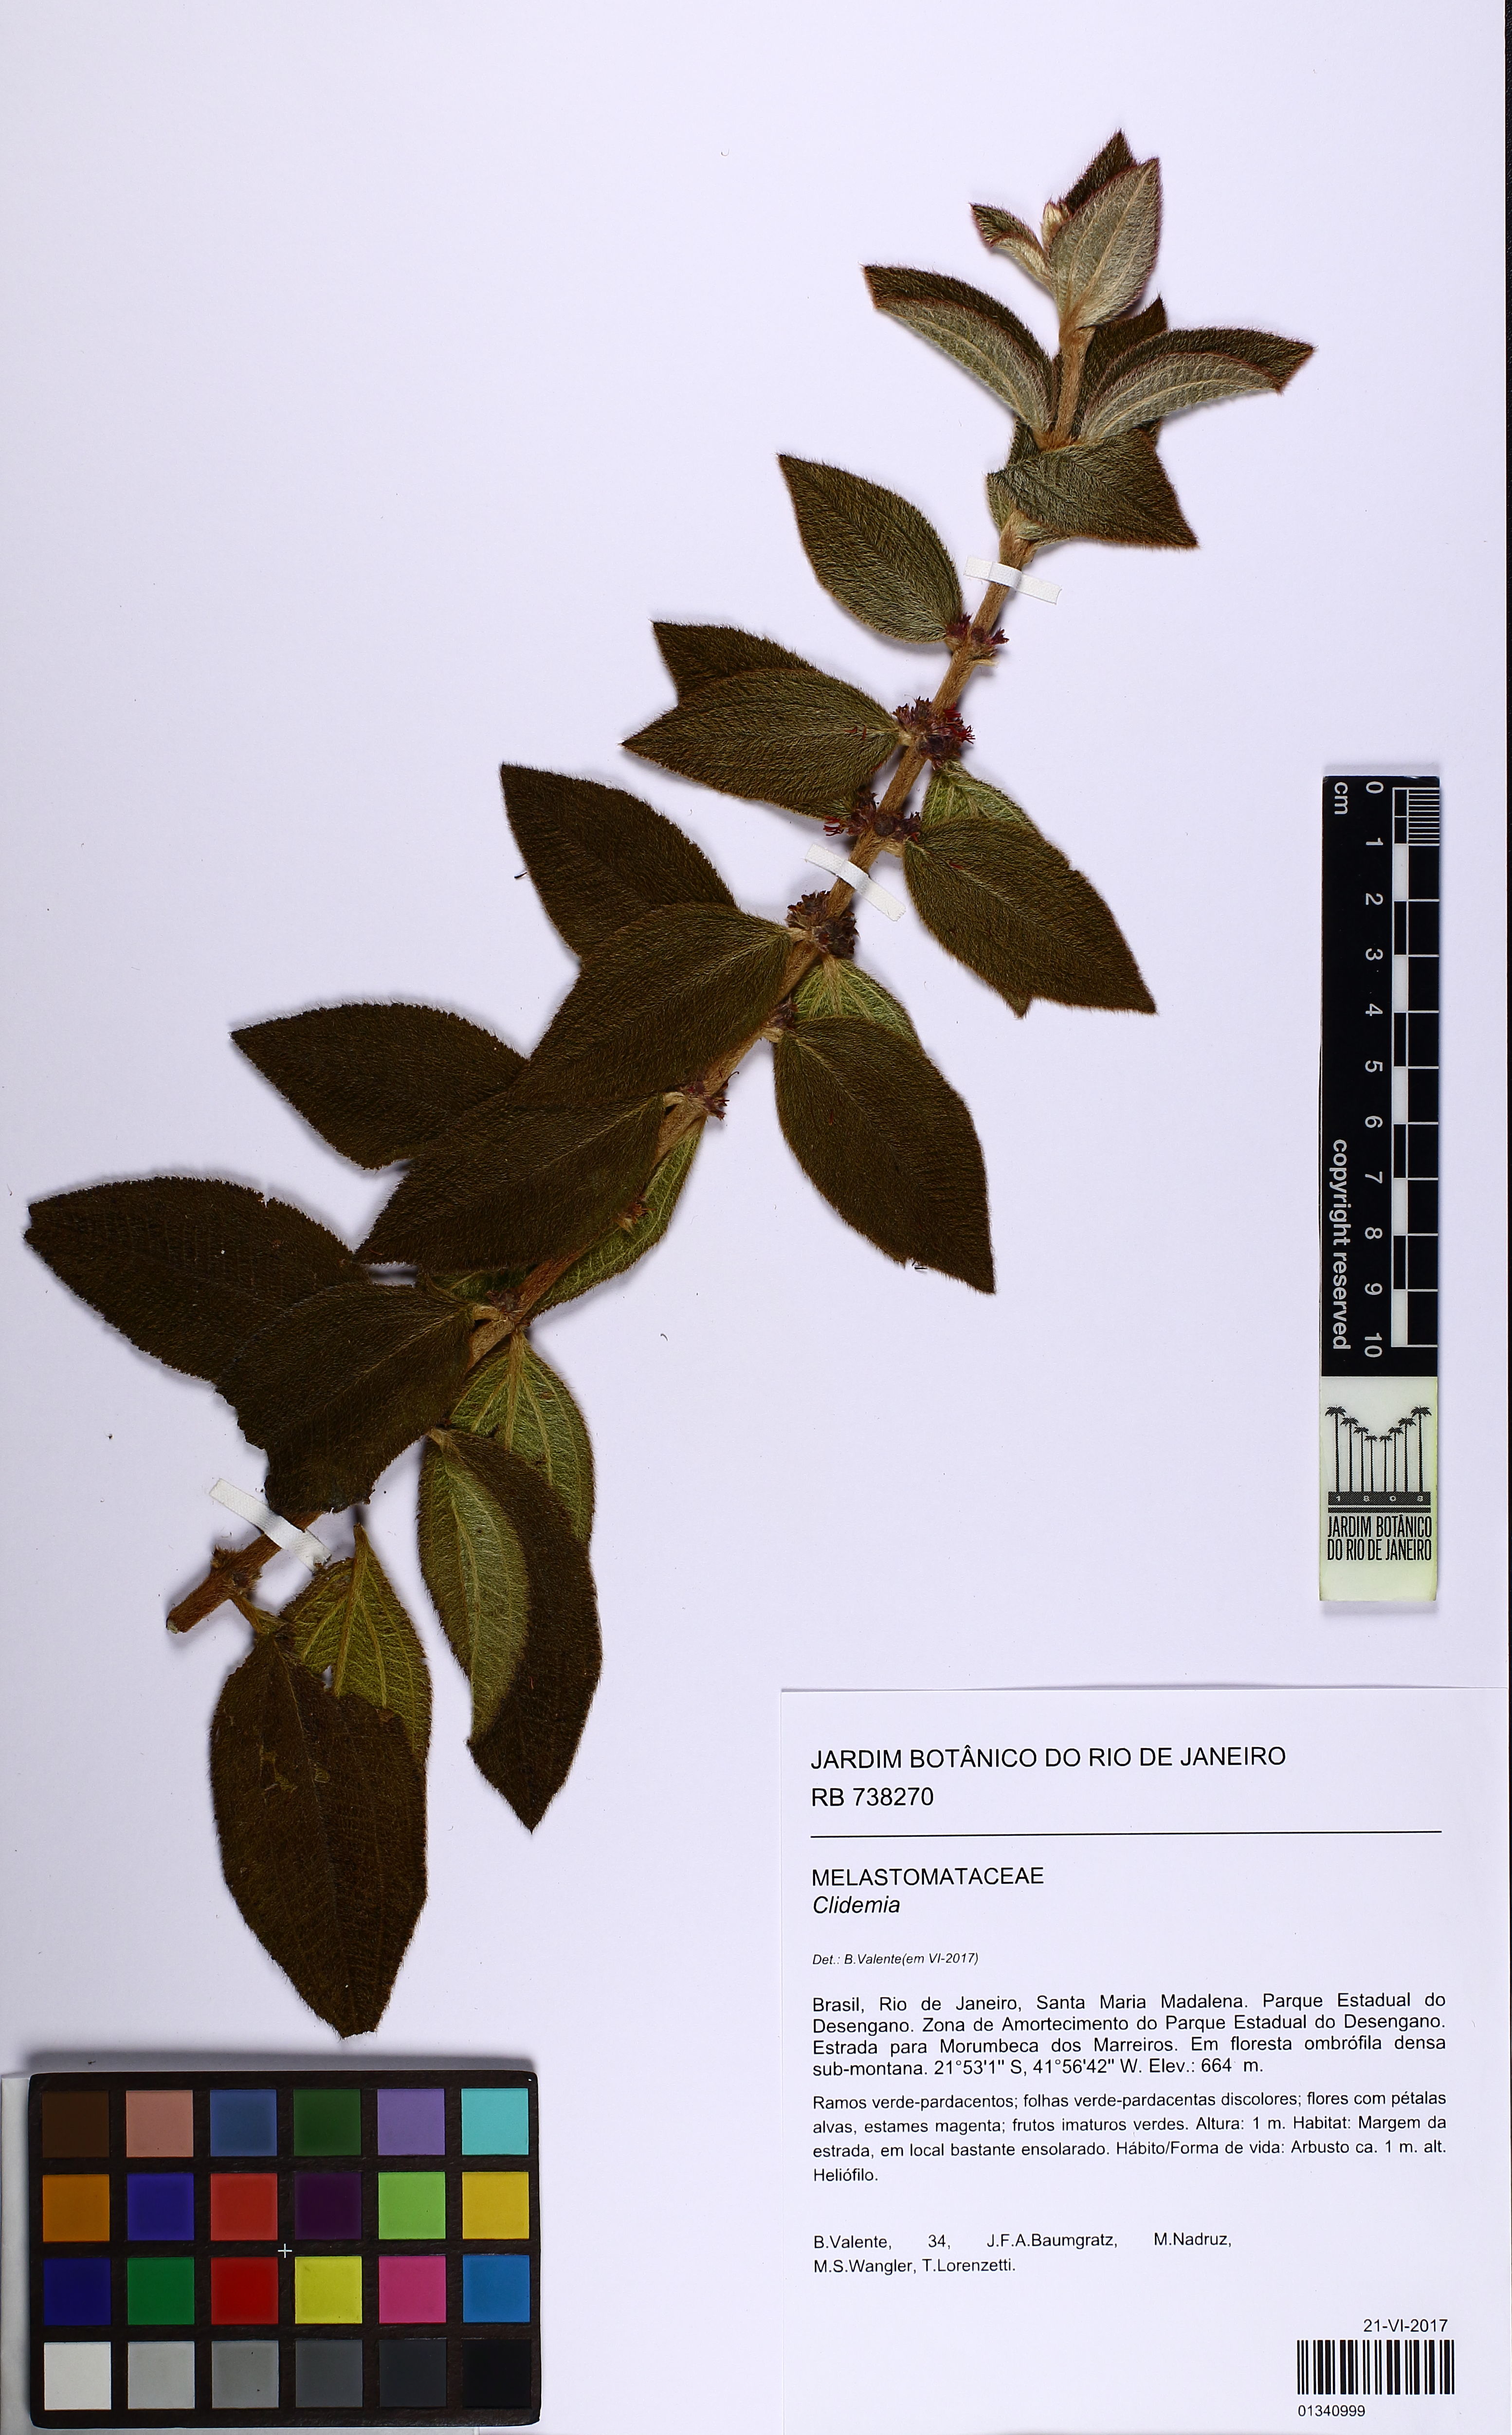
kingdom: Plantae
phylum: Tracheophyta
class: Magnoliopsida
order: Myrtales
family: Melastomataceae
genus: Miconia
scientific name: Miconia sessiliflora
